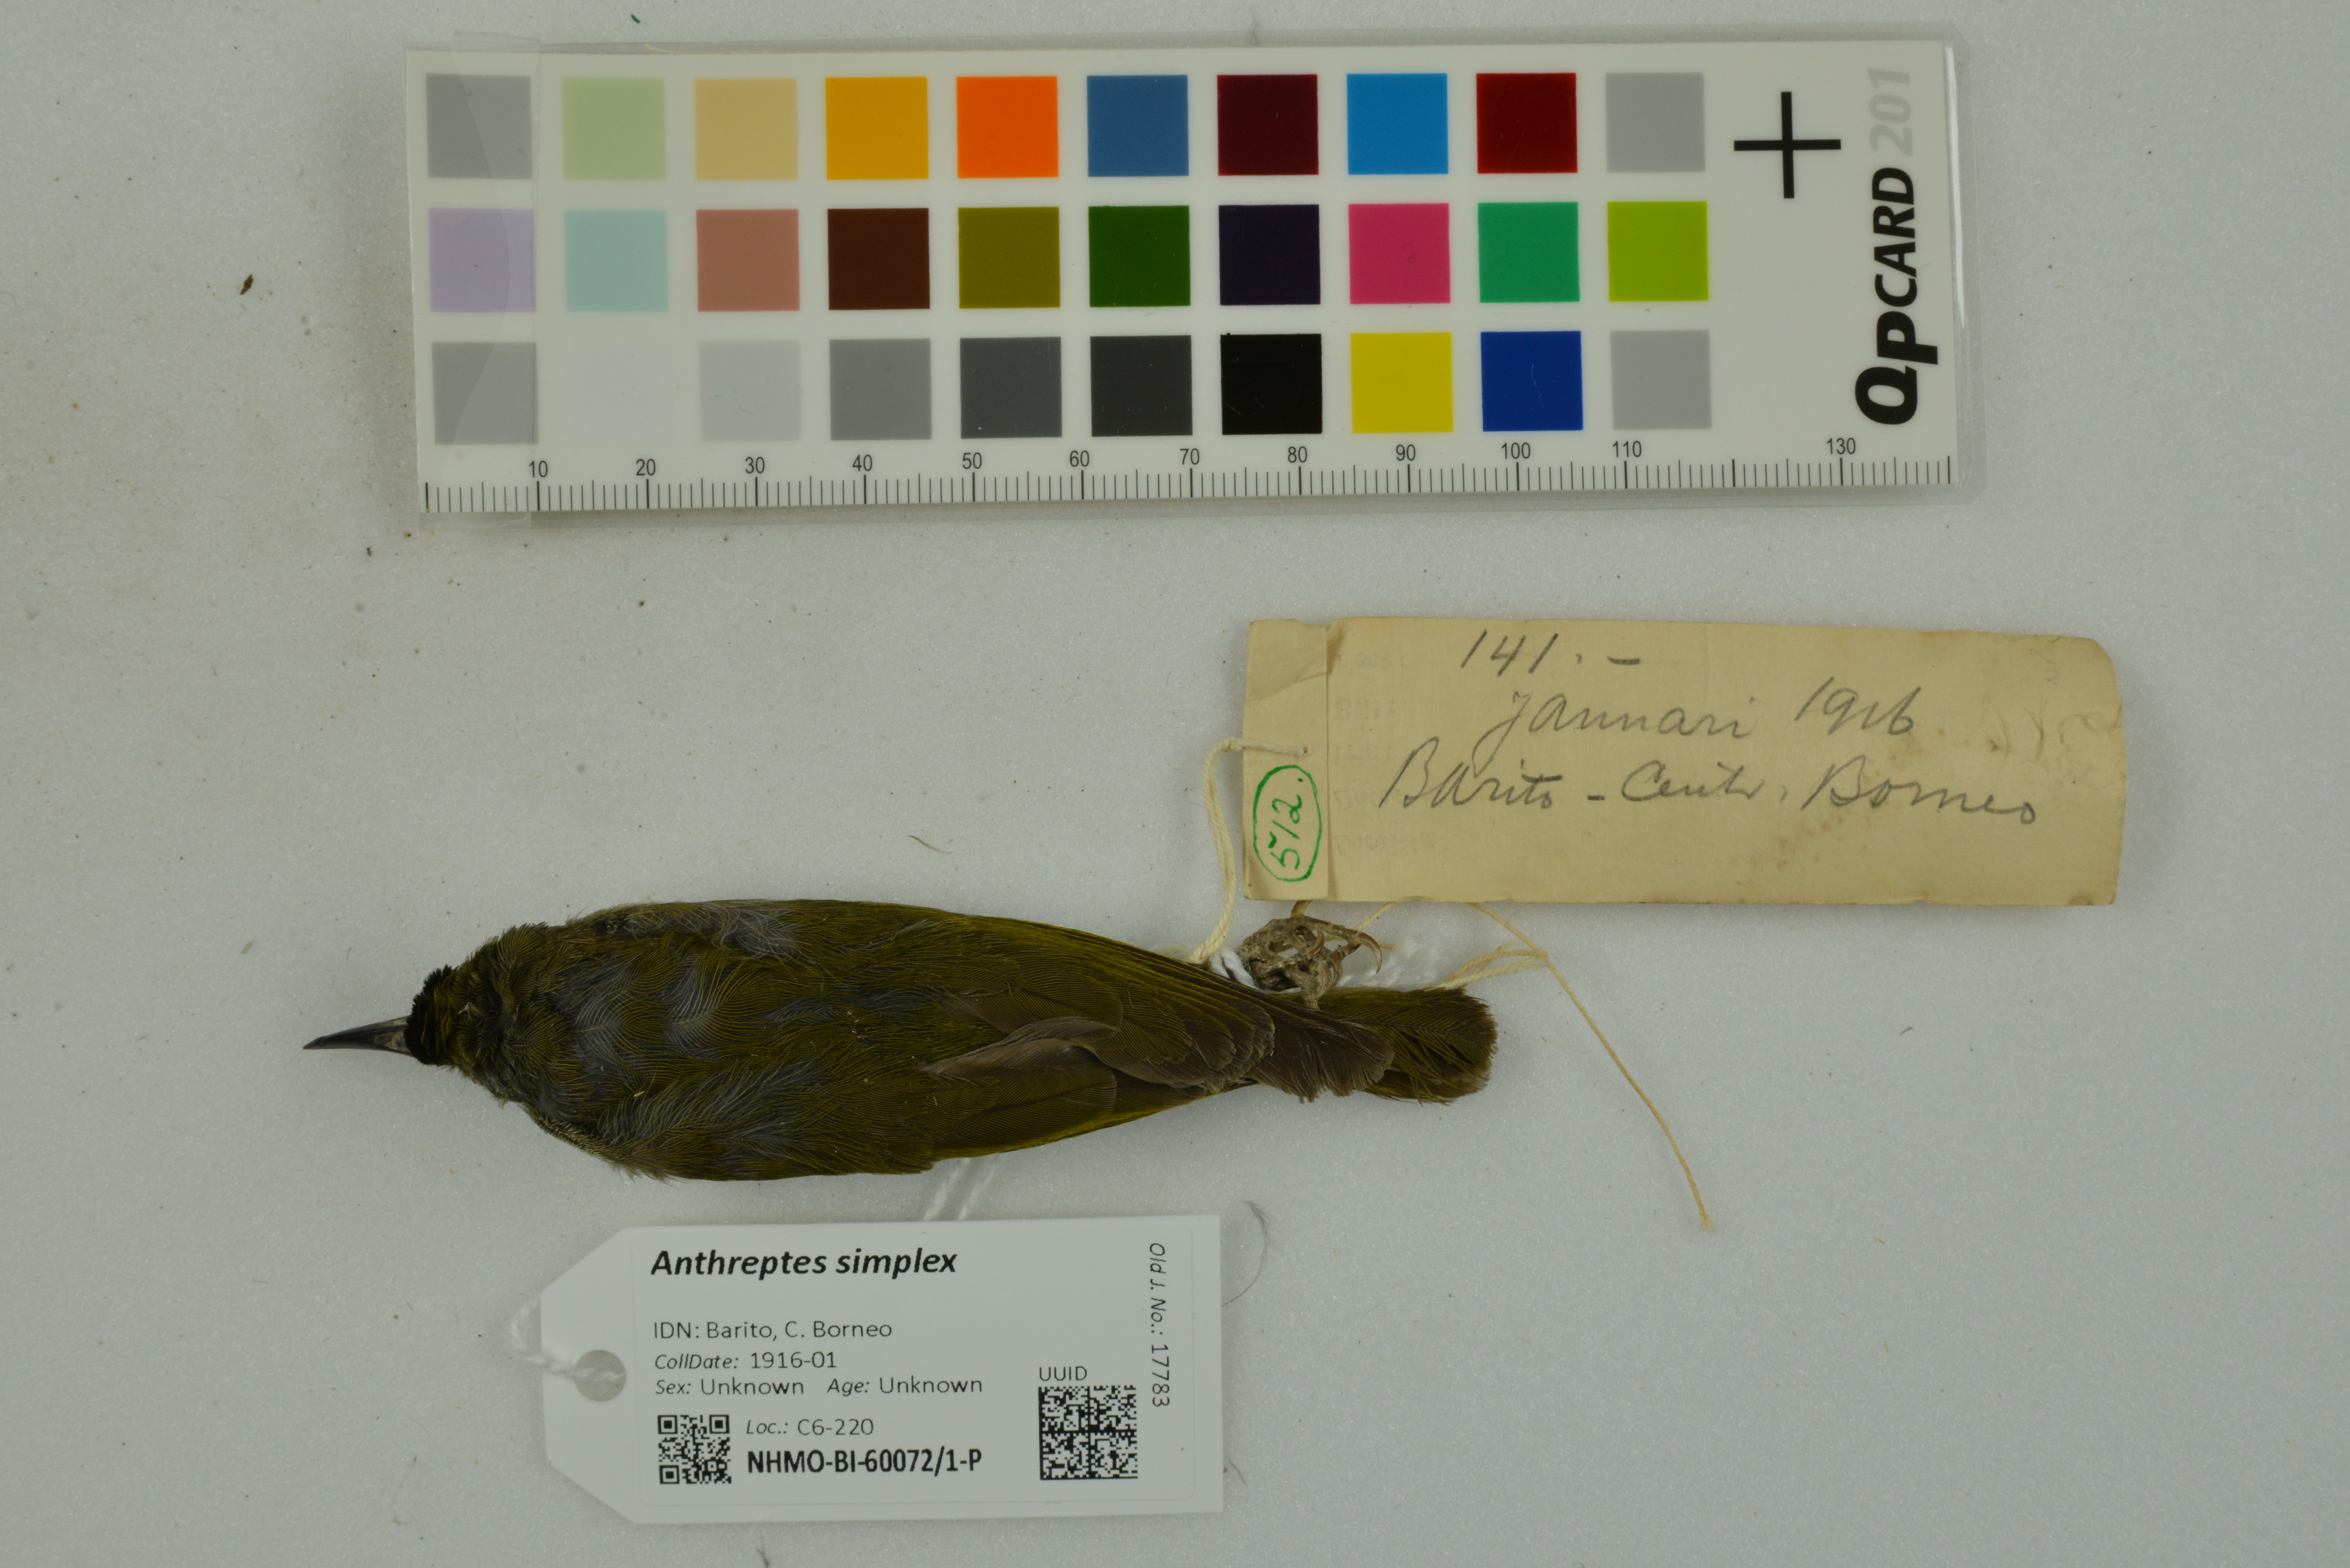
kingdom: Animalia
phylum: Chordata
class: Aves
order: Passeriformes
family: Nectariniidae
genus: Anthreptes
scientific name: Anthreptes simplex
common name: Plain sunbird
